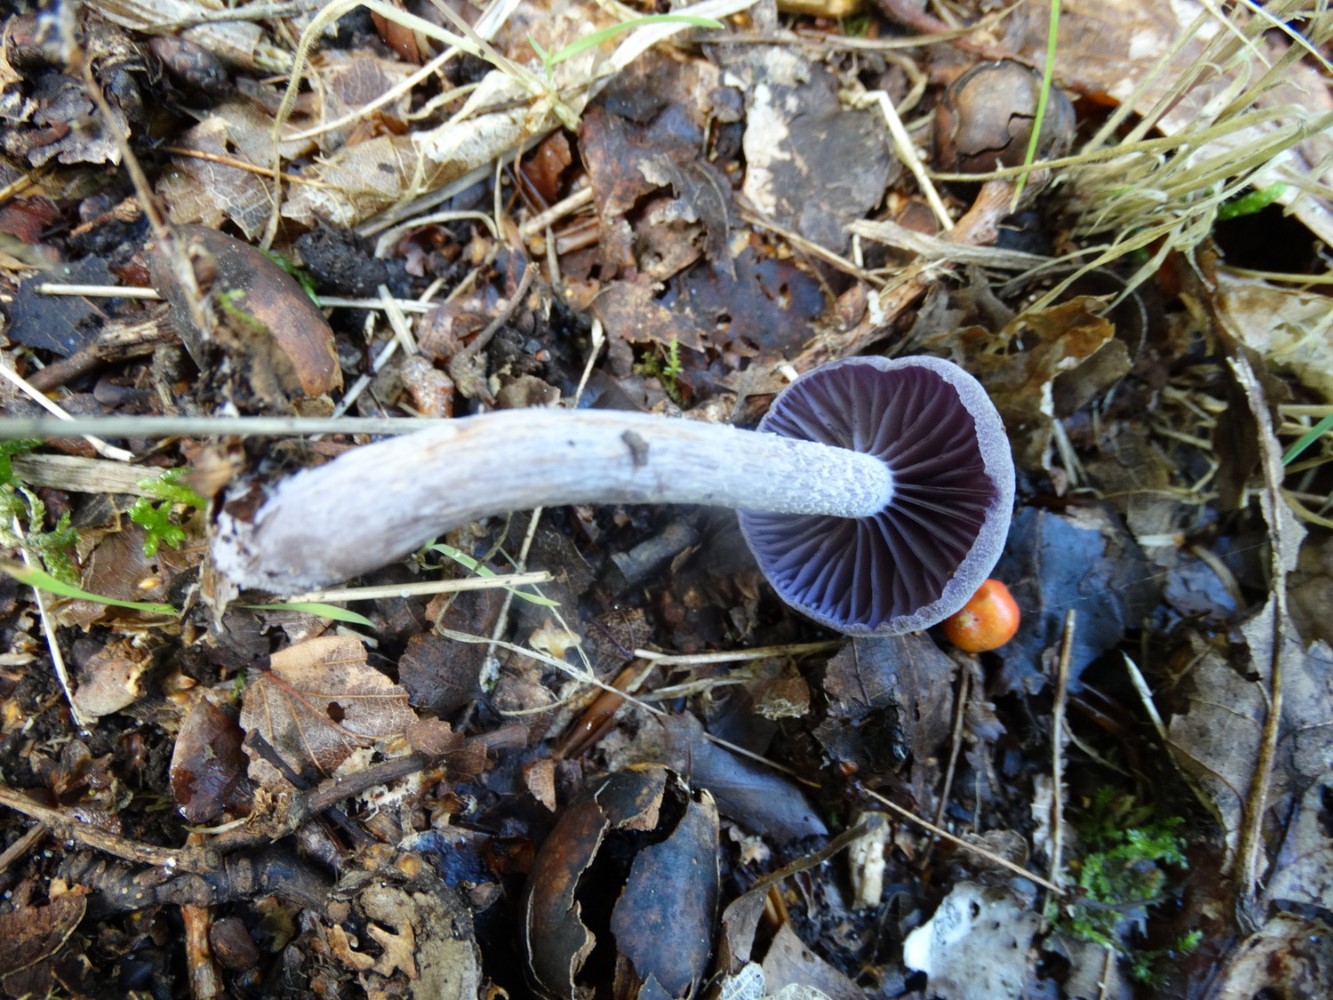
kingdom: Fungi
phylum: Basidiomycota
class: Agaricomycetes
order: Agaricales
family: Hydnangiaceae
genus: Laccaria
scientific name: Laccaria amethystina
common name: violet ametysthat
